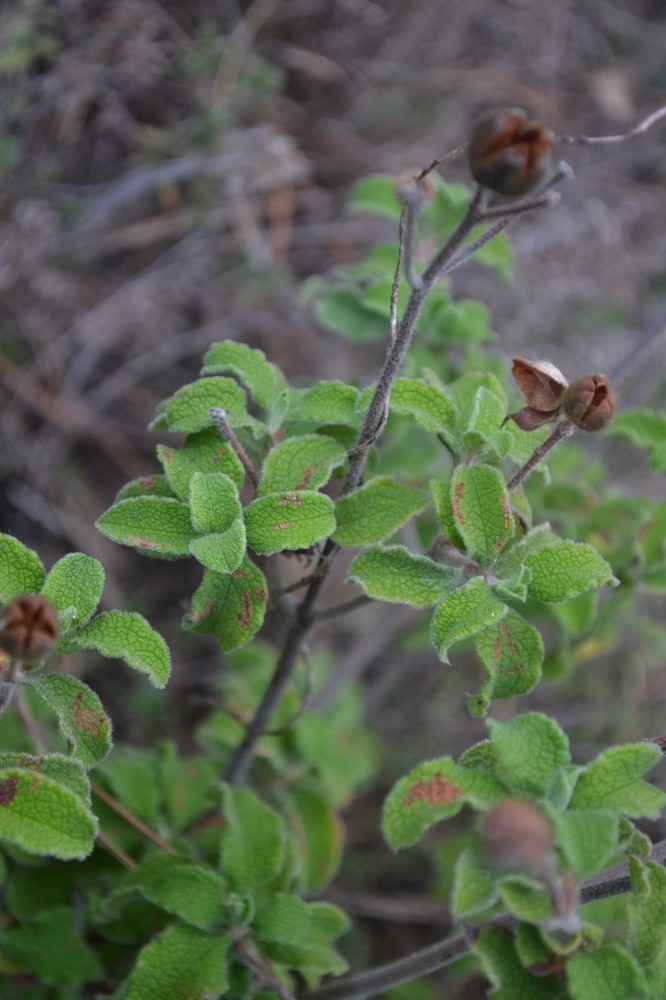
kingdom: Plantae
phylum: Tracheophyta
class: Magnoliopsida
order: Malvales
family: Cistaceae
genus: Cistus
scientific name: Cistus salviifolius
